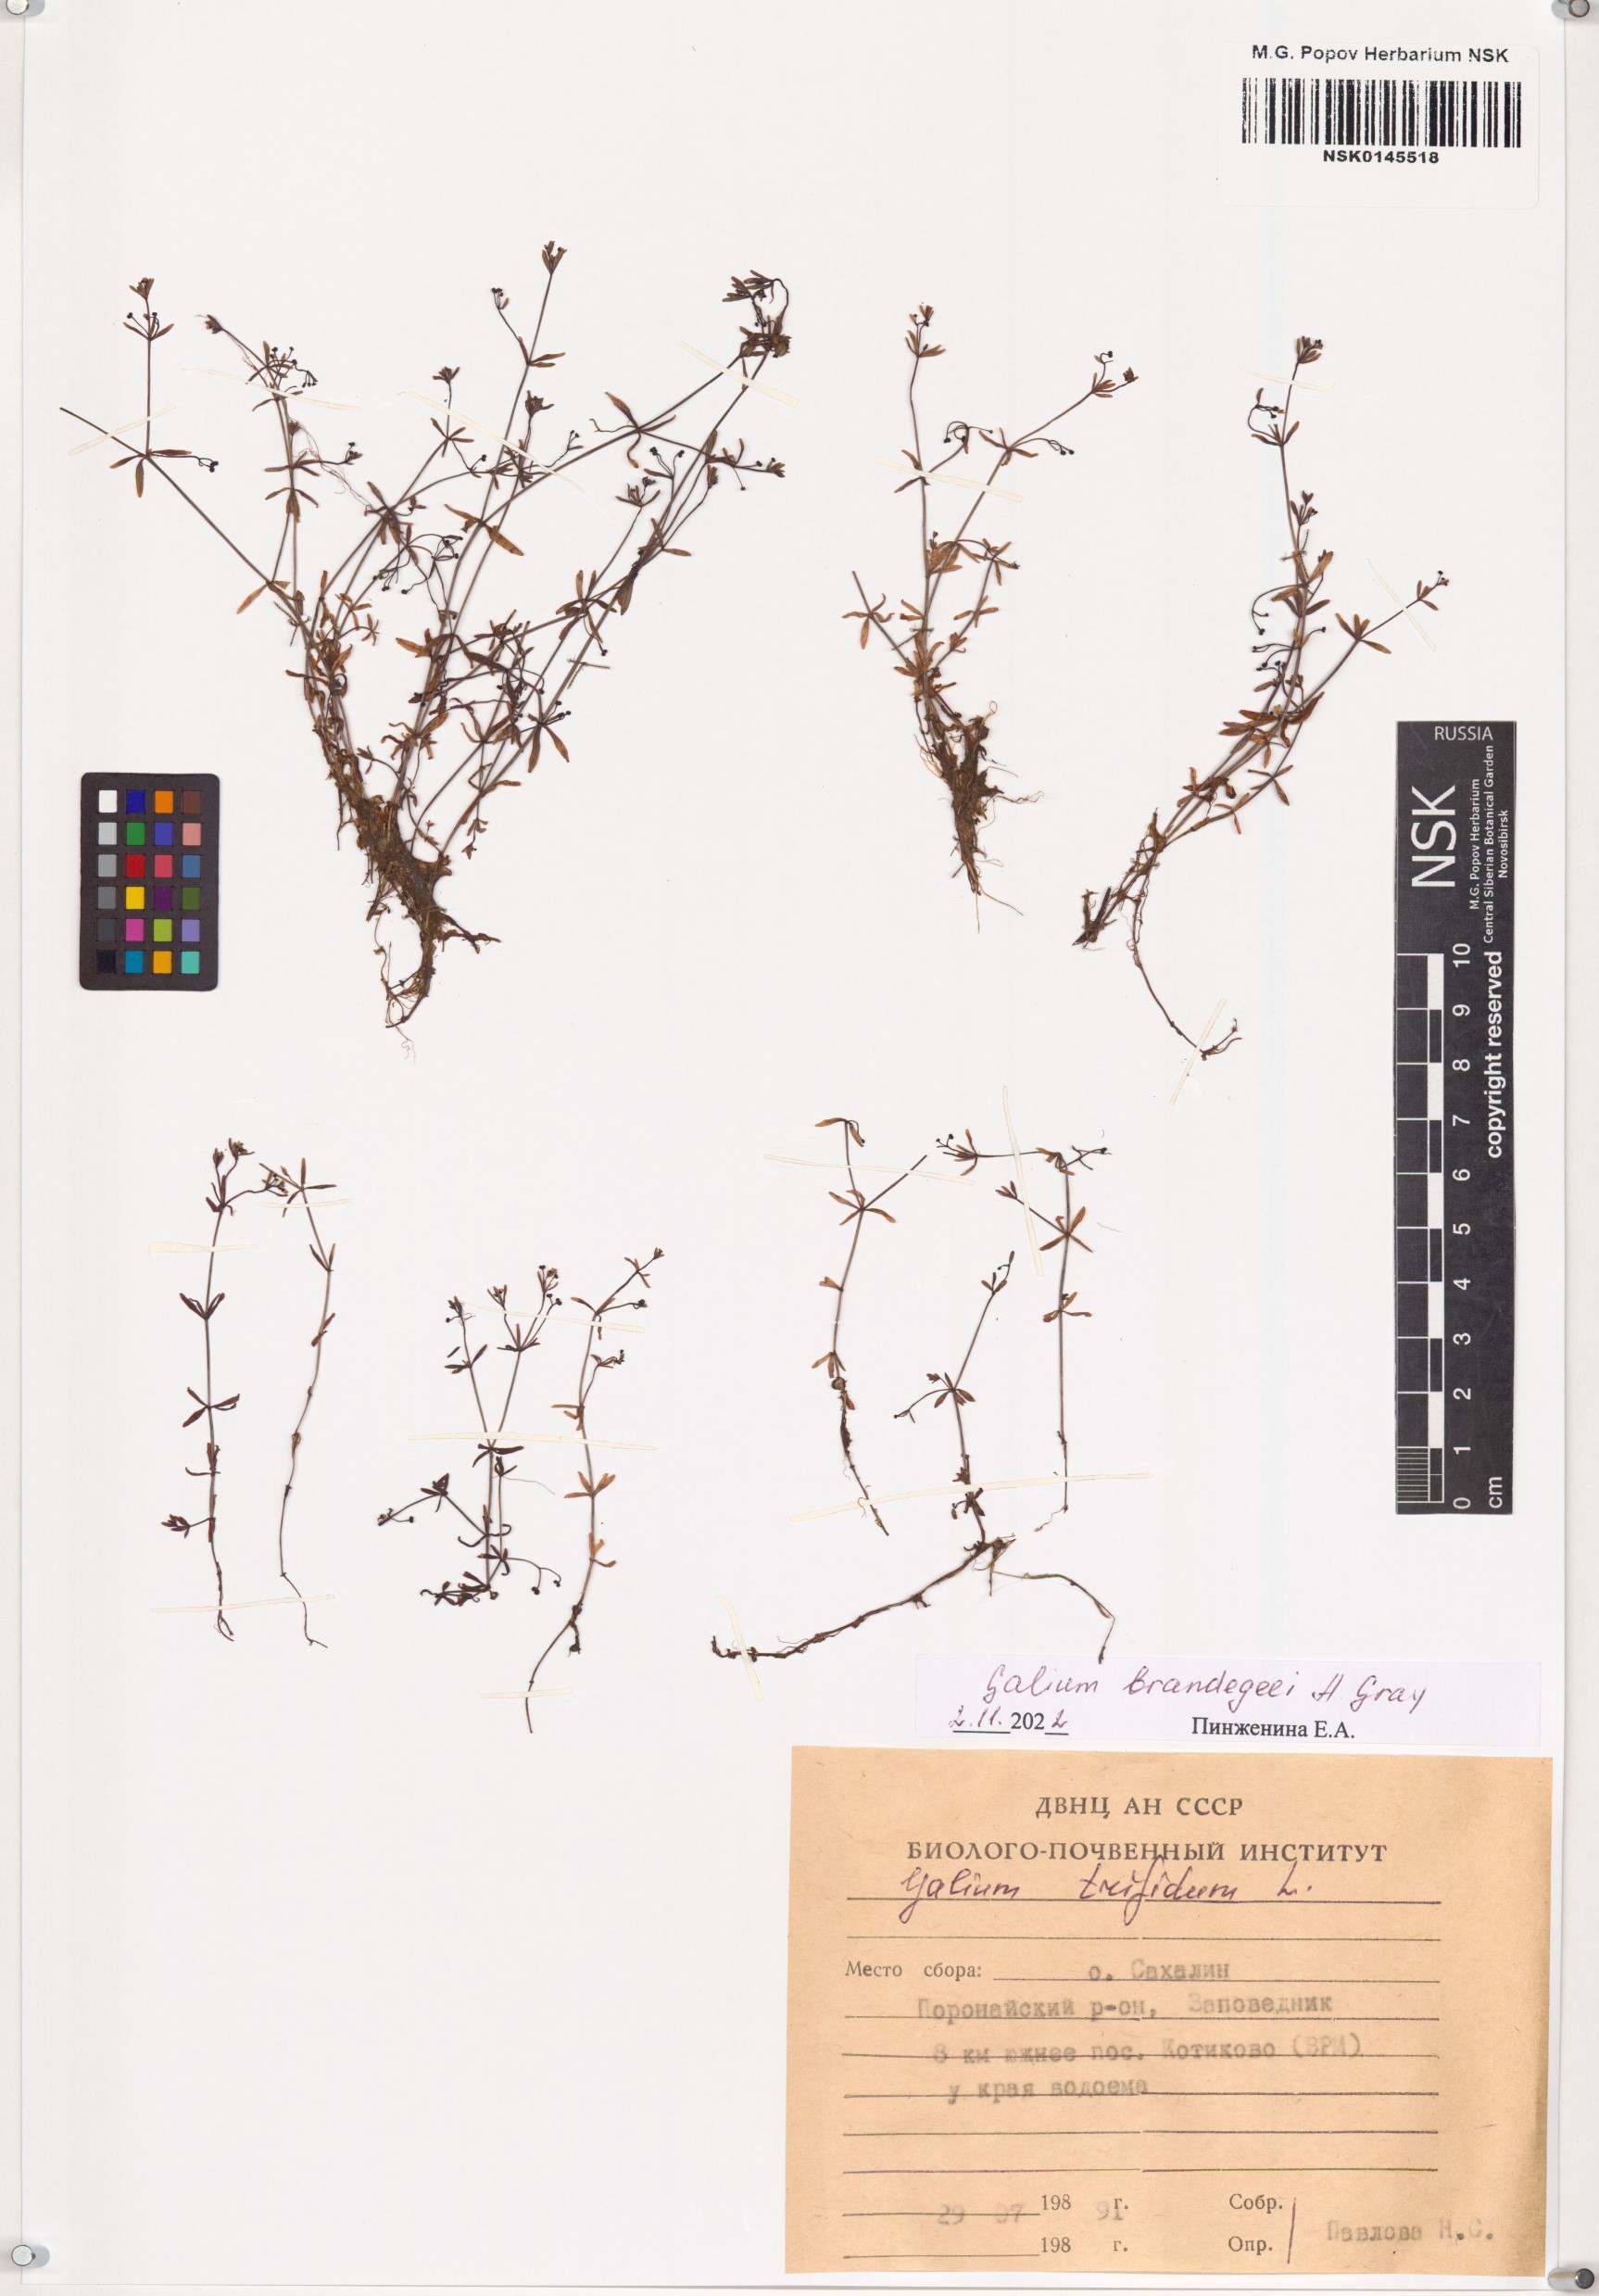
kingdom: Plantae
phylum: Tracheophyta
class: Magnoliopsida
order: Gentianales
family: Rubiaceae
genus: Galium
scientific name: Galium trifidum
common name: Small bedstraw
